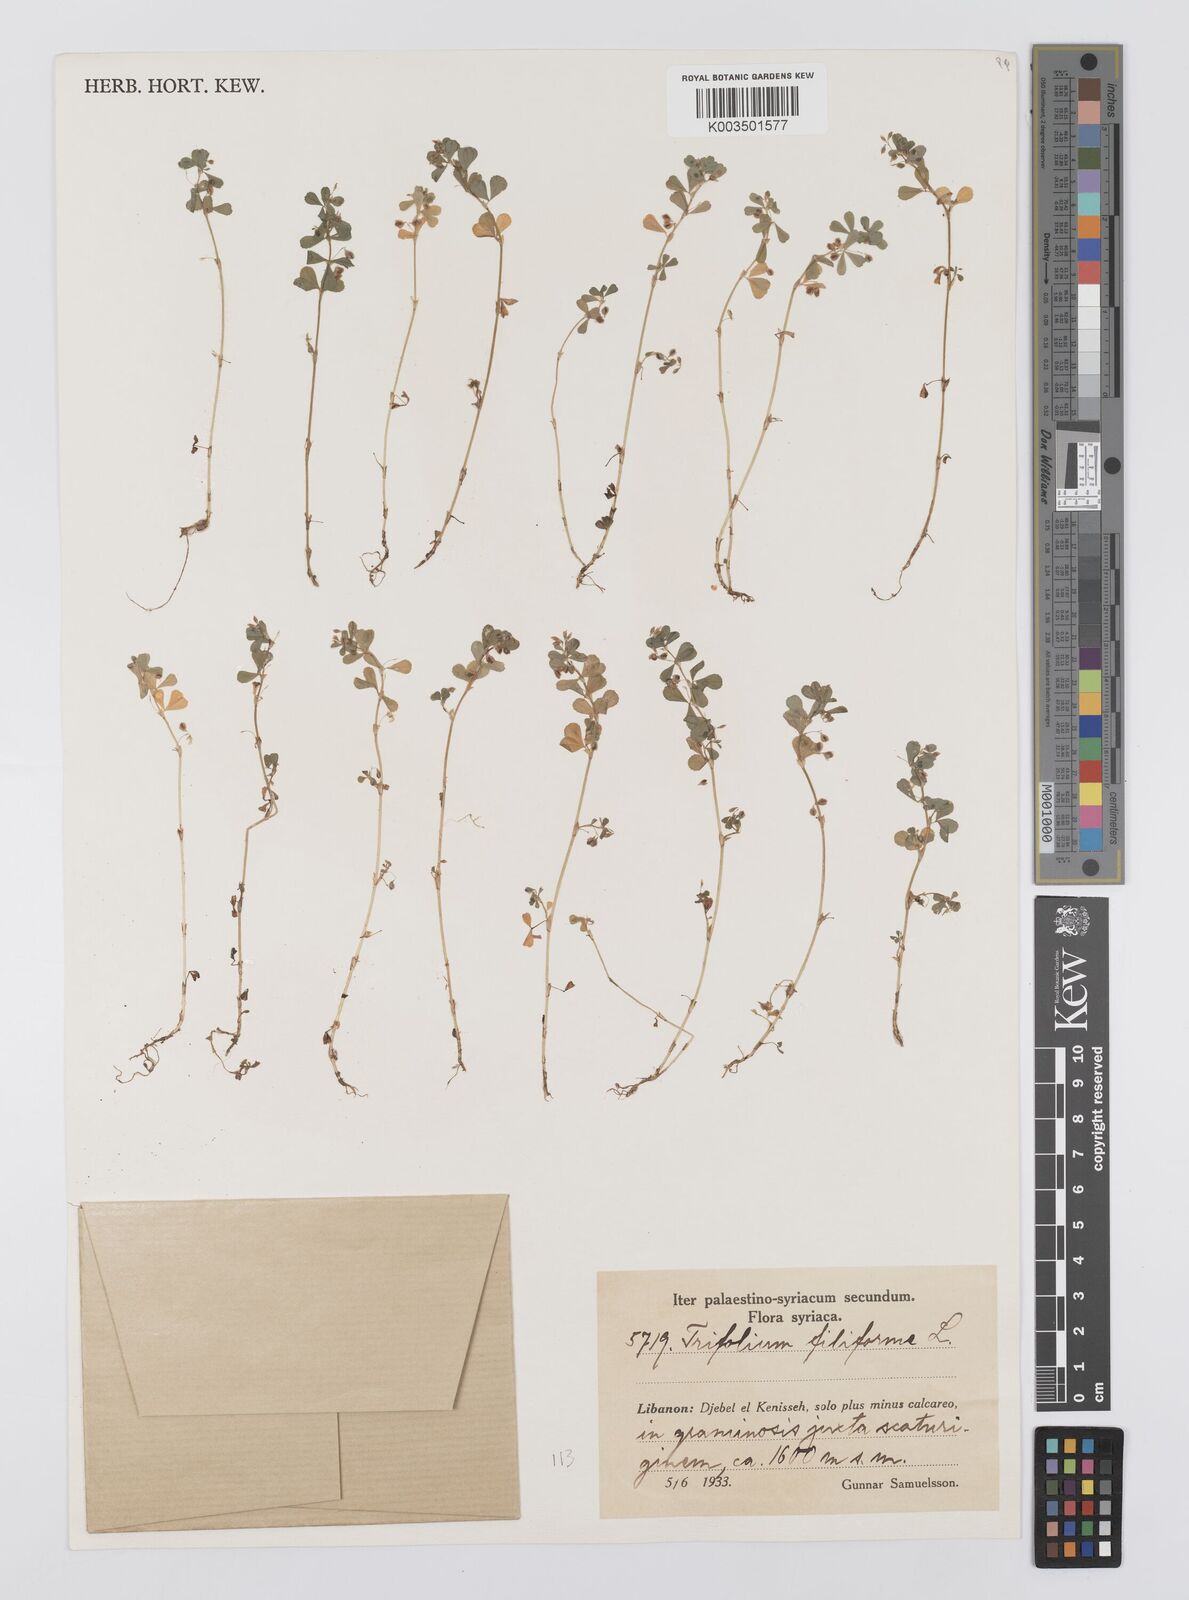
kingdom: Plantae
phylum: Tracheophyta
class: Magnoliopsida
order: Fabales
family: Fabaceae
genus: Trifolium
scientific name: Trifolium micranthum
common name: Slender trefoil
